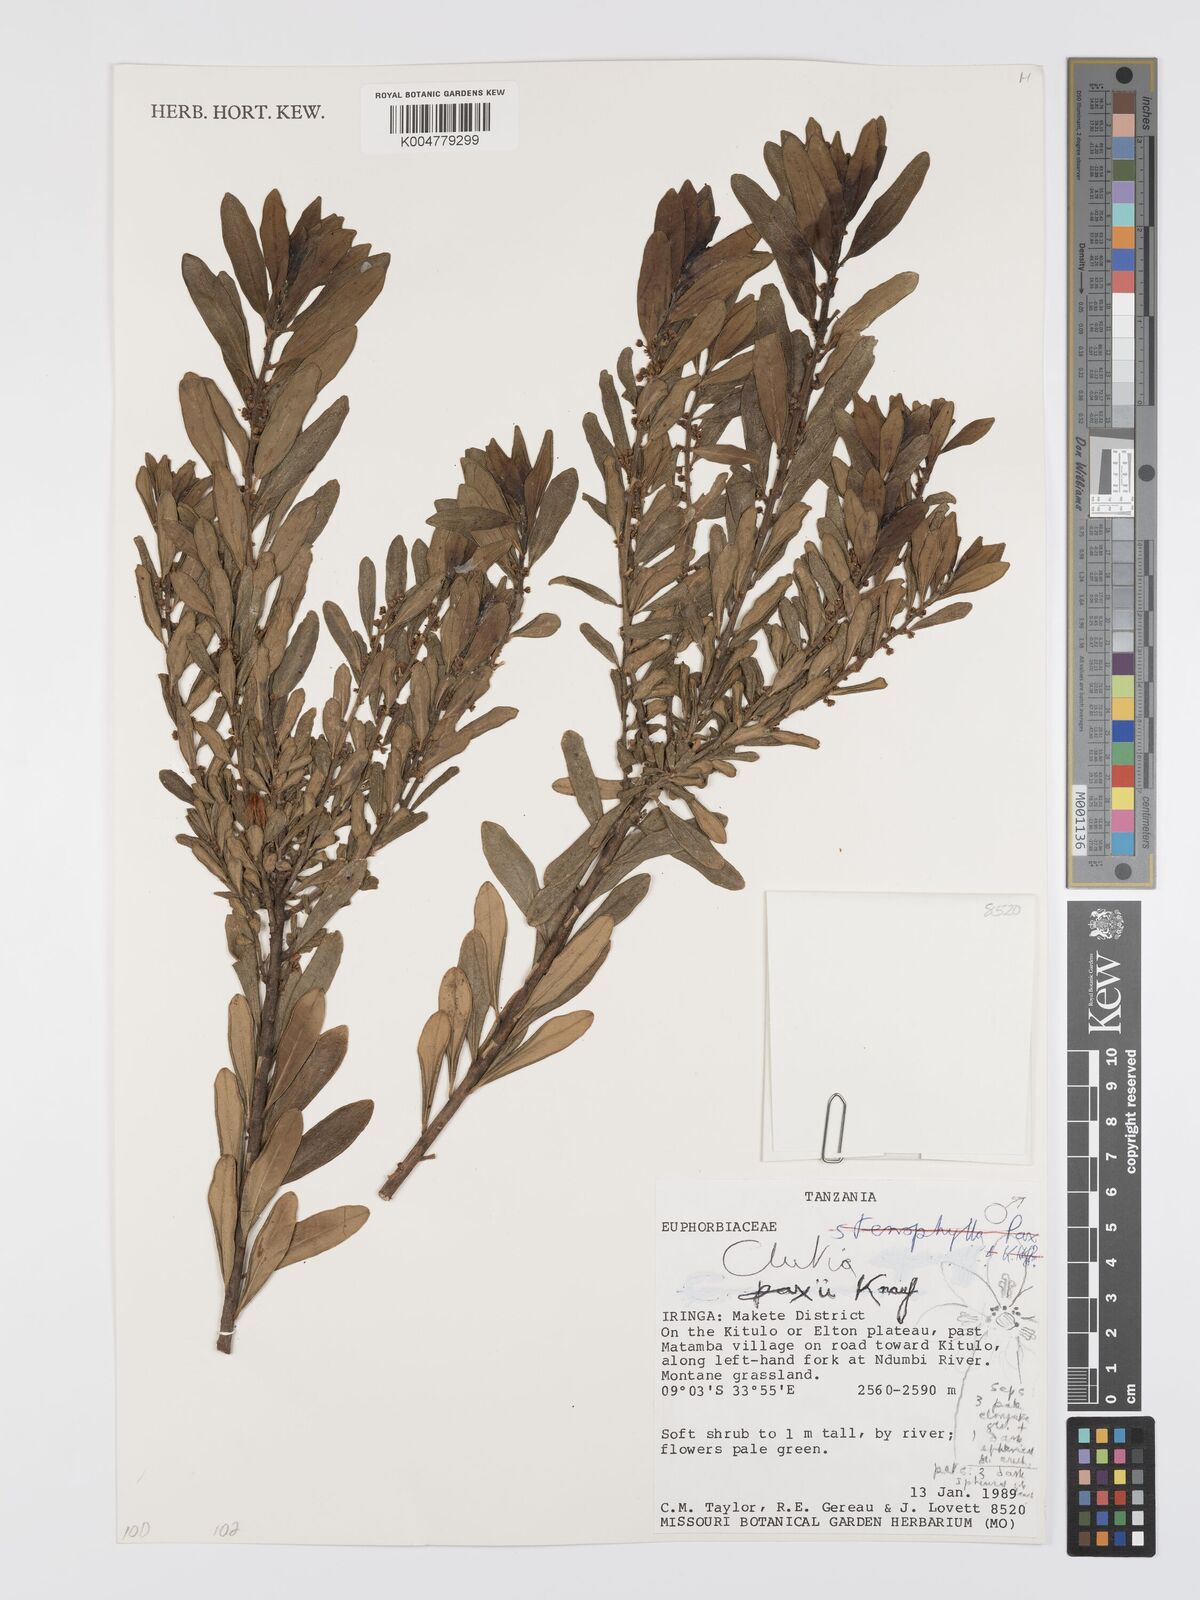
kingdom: Plantae
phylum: Tracheophyta
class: Magnoliopsida
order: Malpighiales
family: Peraceae
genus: Clutia
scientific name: Clutia paxii
